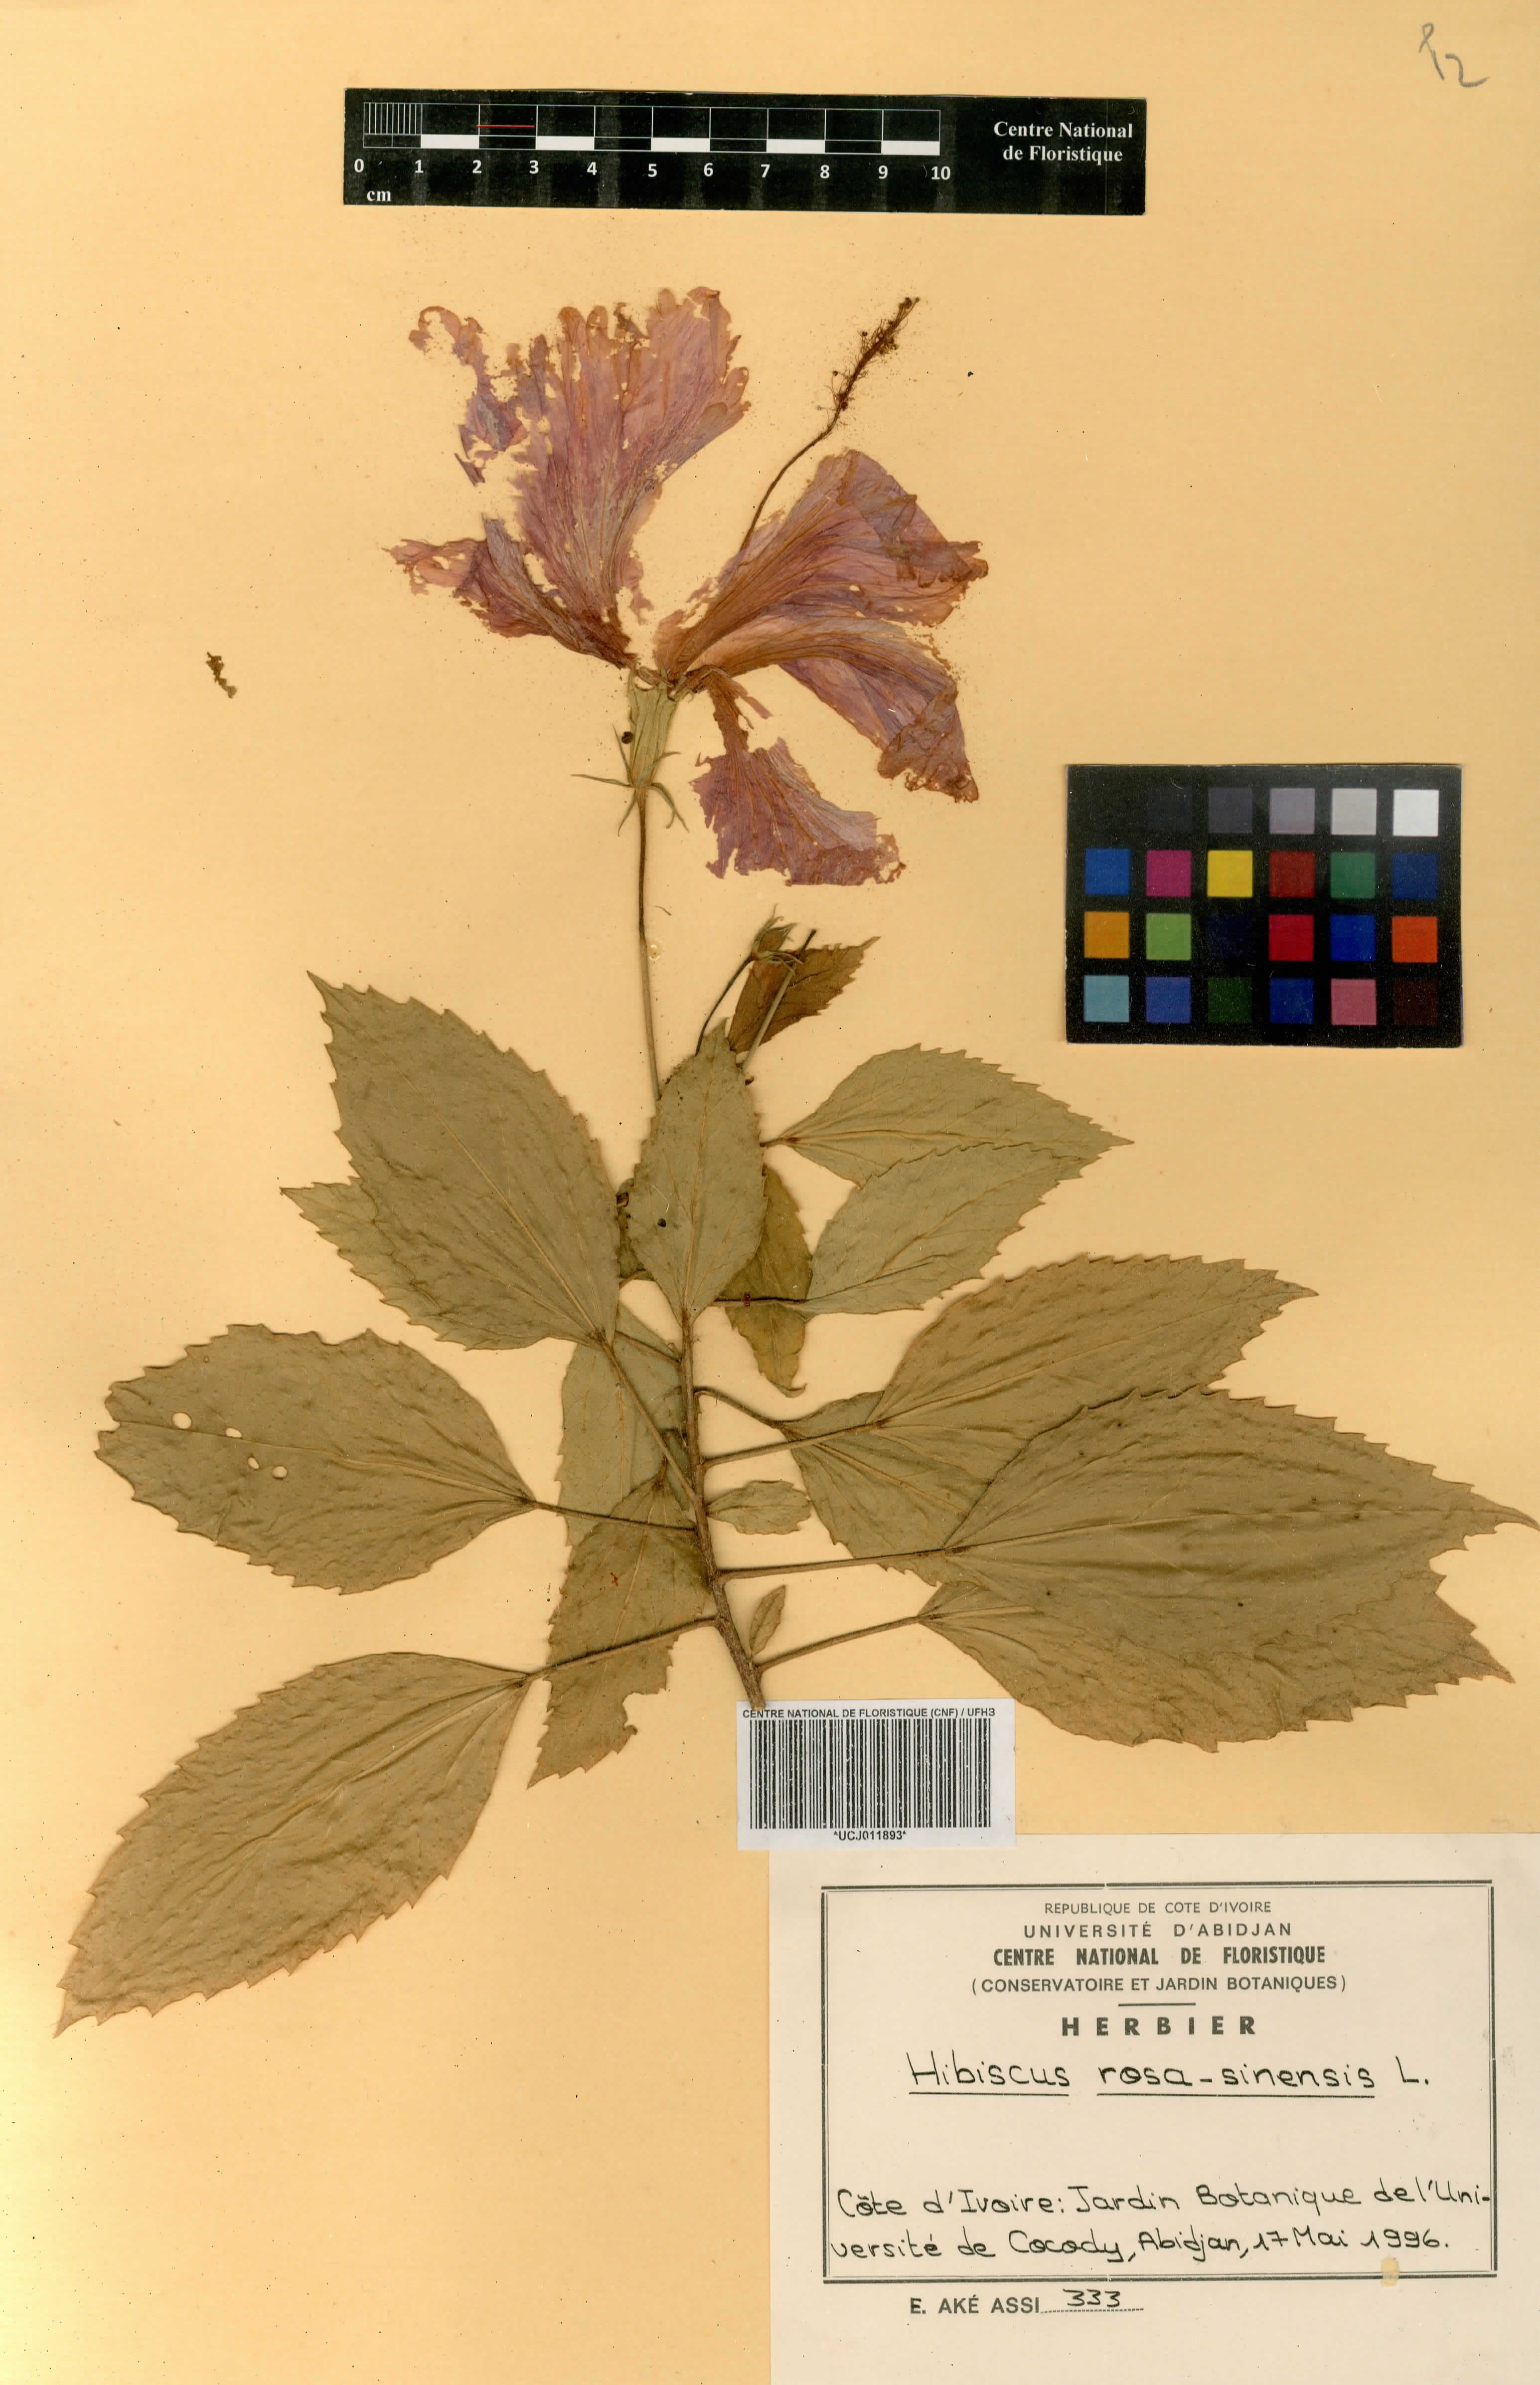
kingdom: Plantae
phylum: Tracheophyta
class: Magnoliopsida
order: Malvales
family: Malvaceae
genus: Hibiscus
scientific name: Hibiscus rosa-sinensis
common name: Hibiscus
